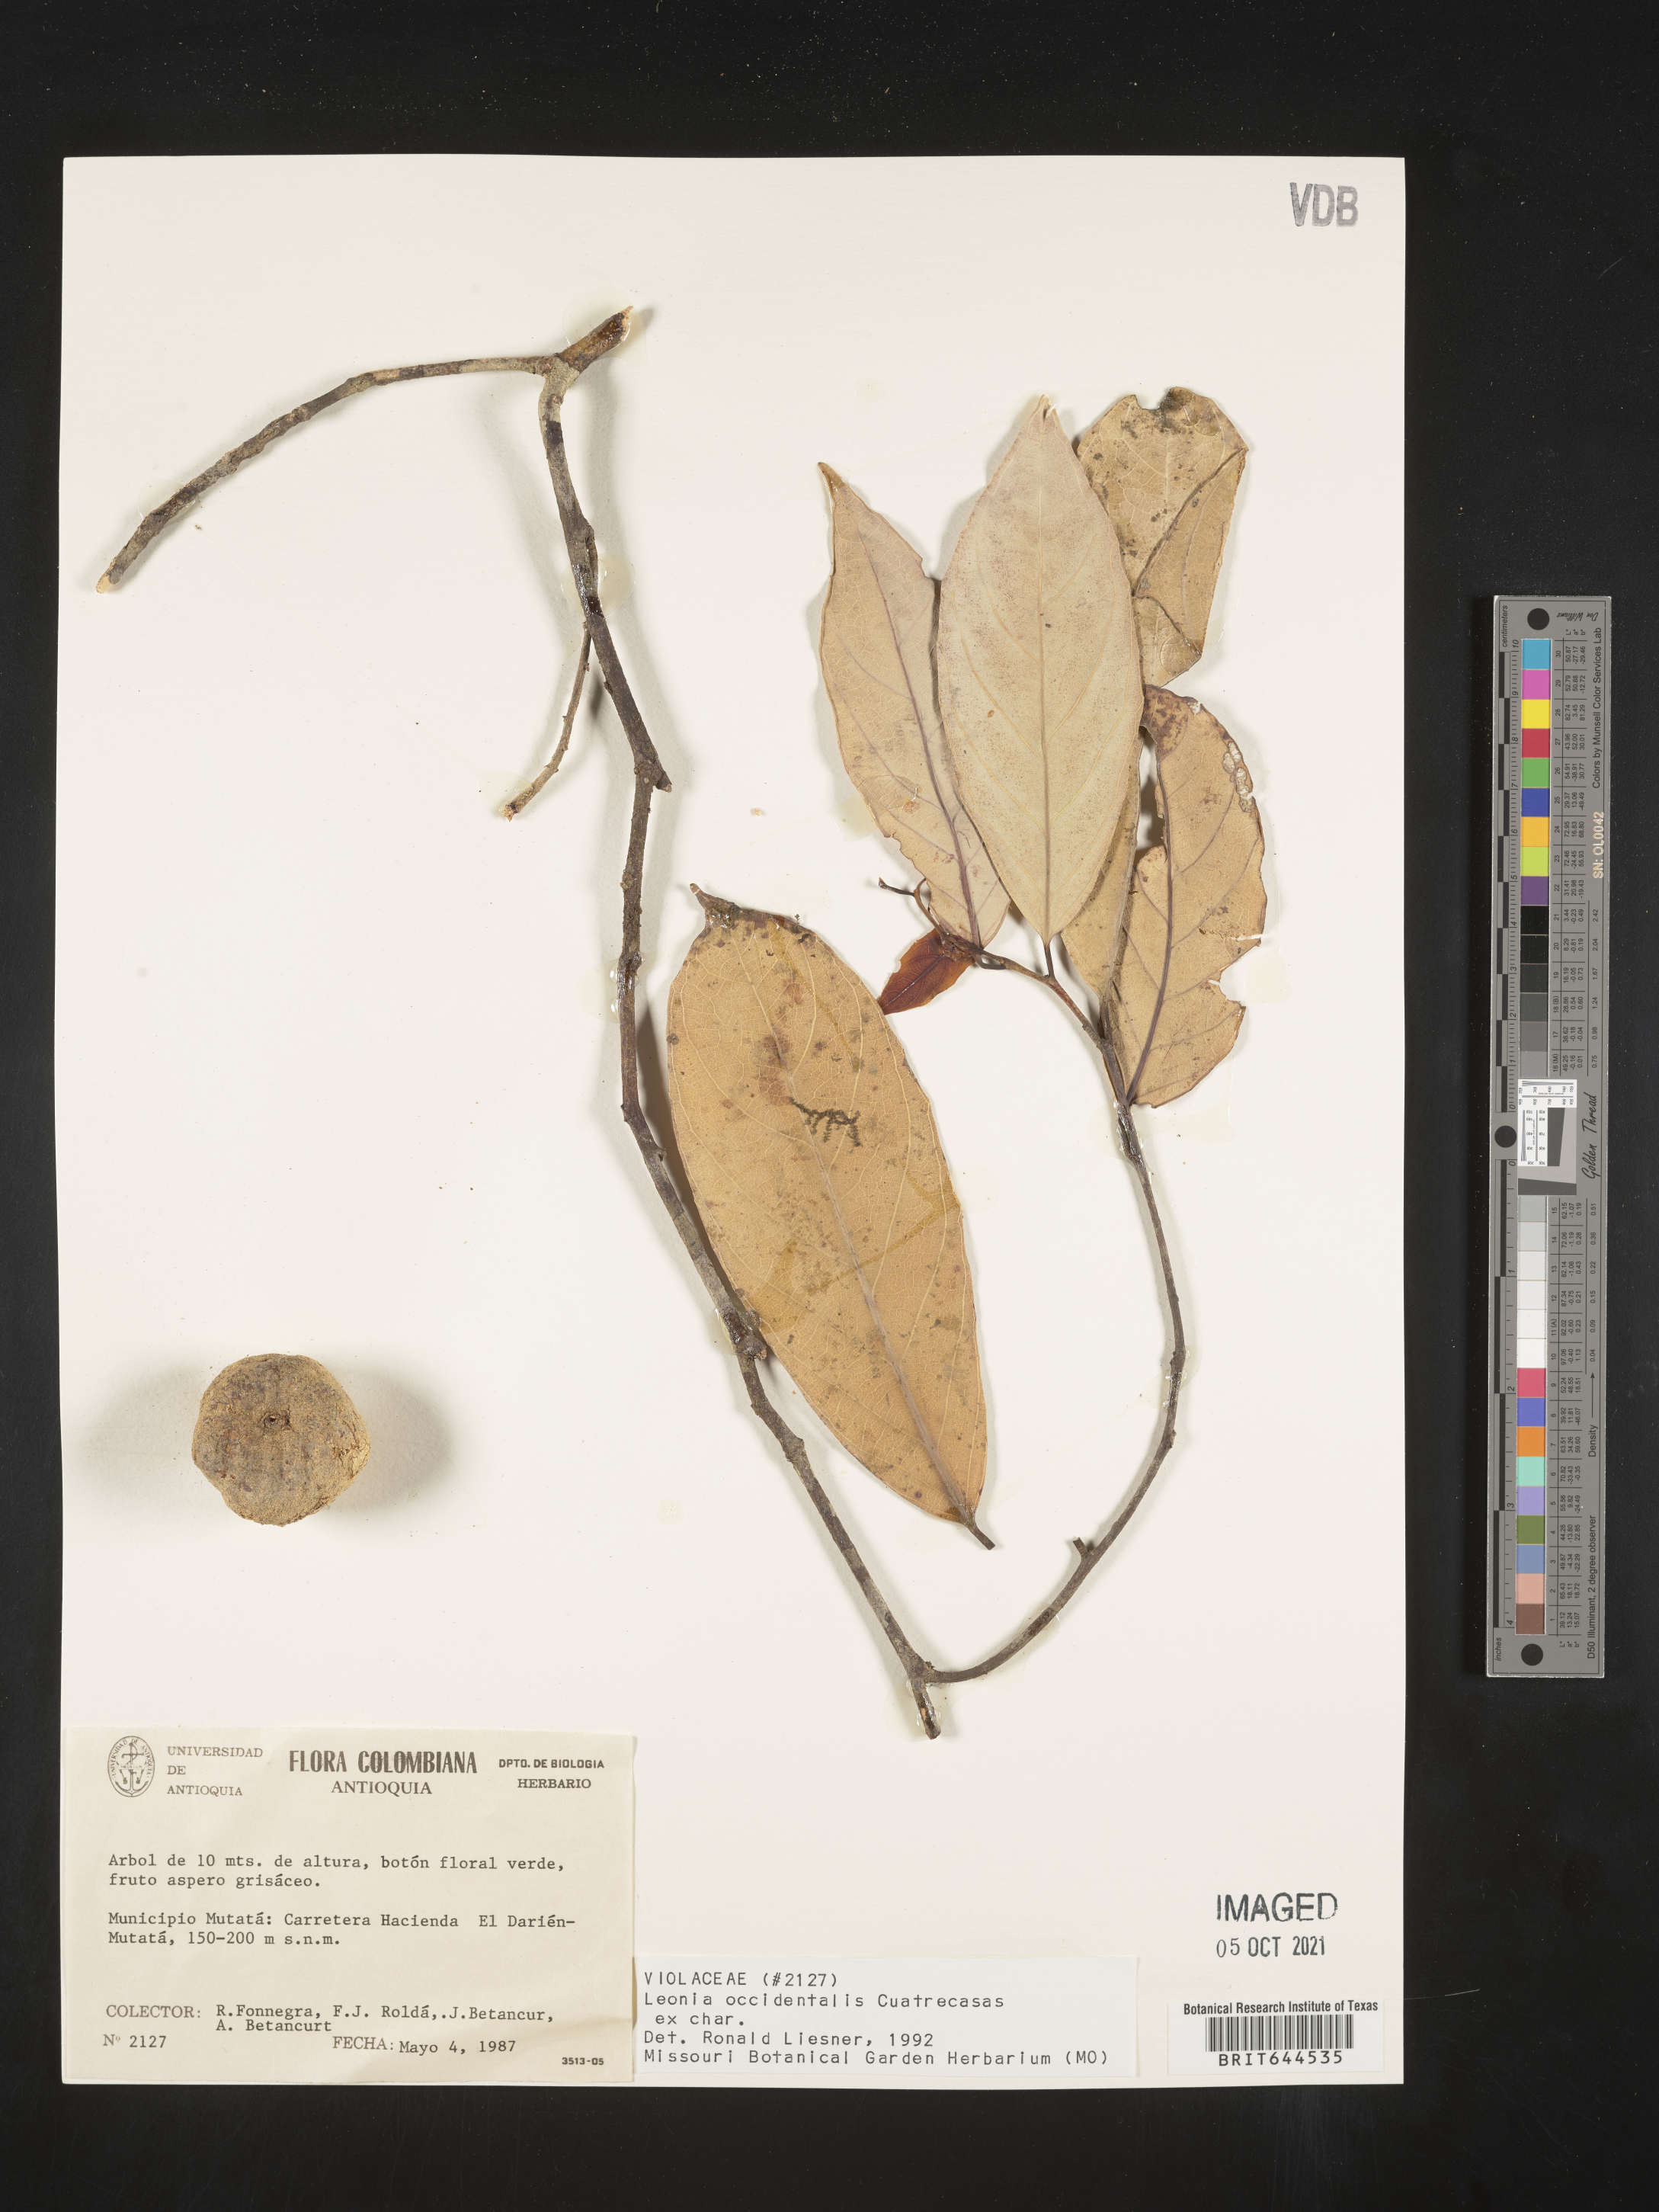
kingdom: Plantae
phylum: Tracheophyta
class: Magnoliopsida
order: Malpighiales
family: Violaceae
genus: Leonia
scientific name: Leonia
